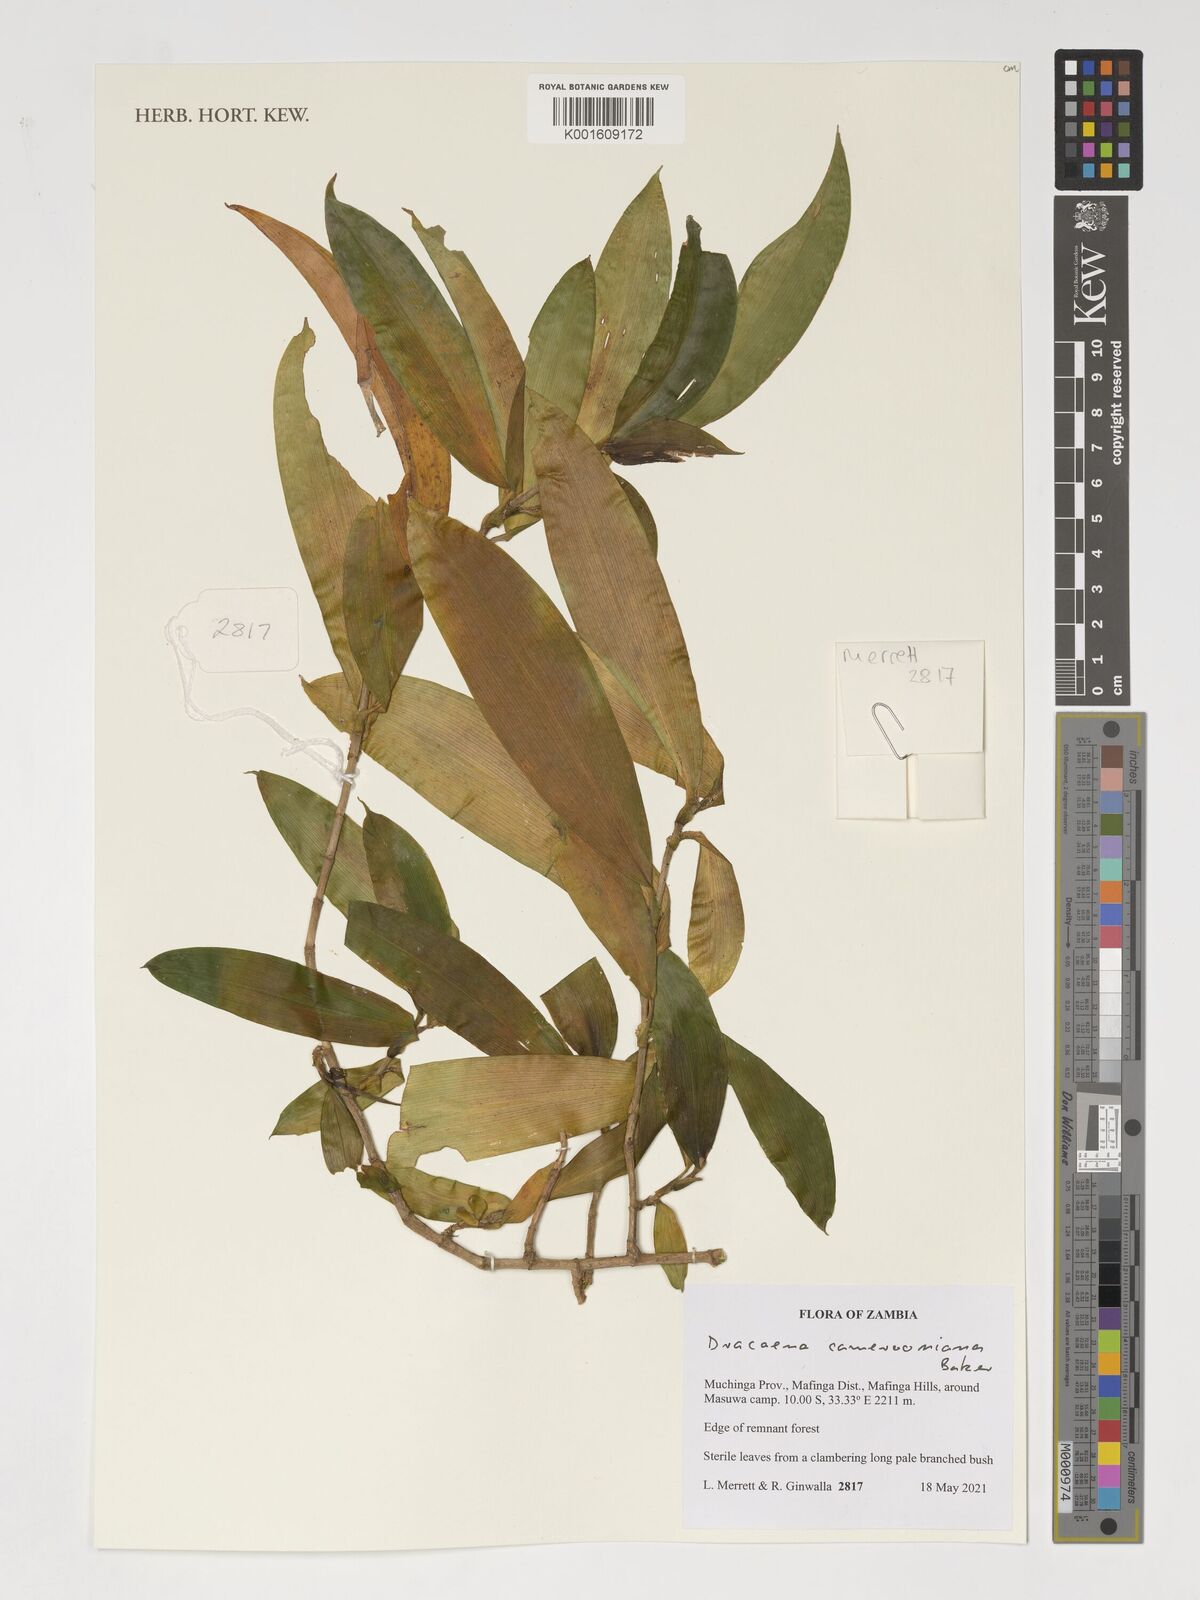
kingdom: Plantae
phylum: Tracheophyta
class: Liliopsida
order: Asparagales
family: Asparagaceae
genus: Dracaena
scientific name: Dracaena camerooniana
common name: Dragon tree
